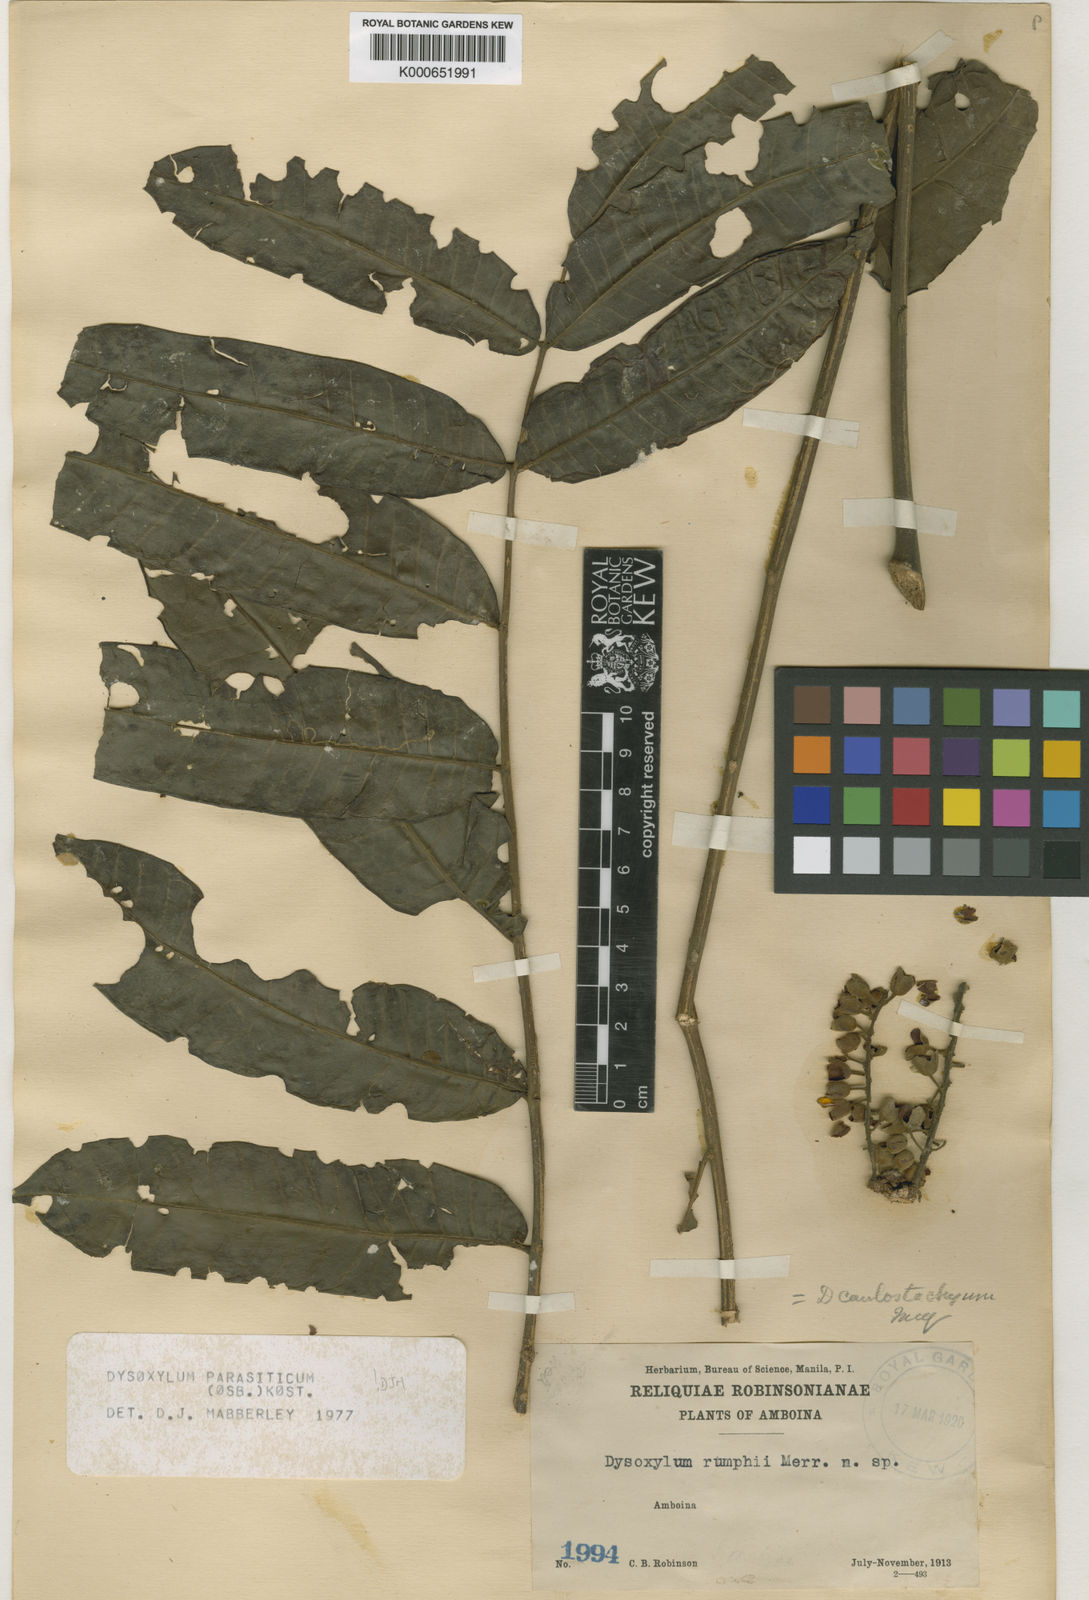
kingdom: Plantae
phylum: Tracheophyta
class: Magnoliopsida
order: Sapindales
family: Meliaceae
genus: Epicharis
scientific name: Epicharis parasitica
